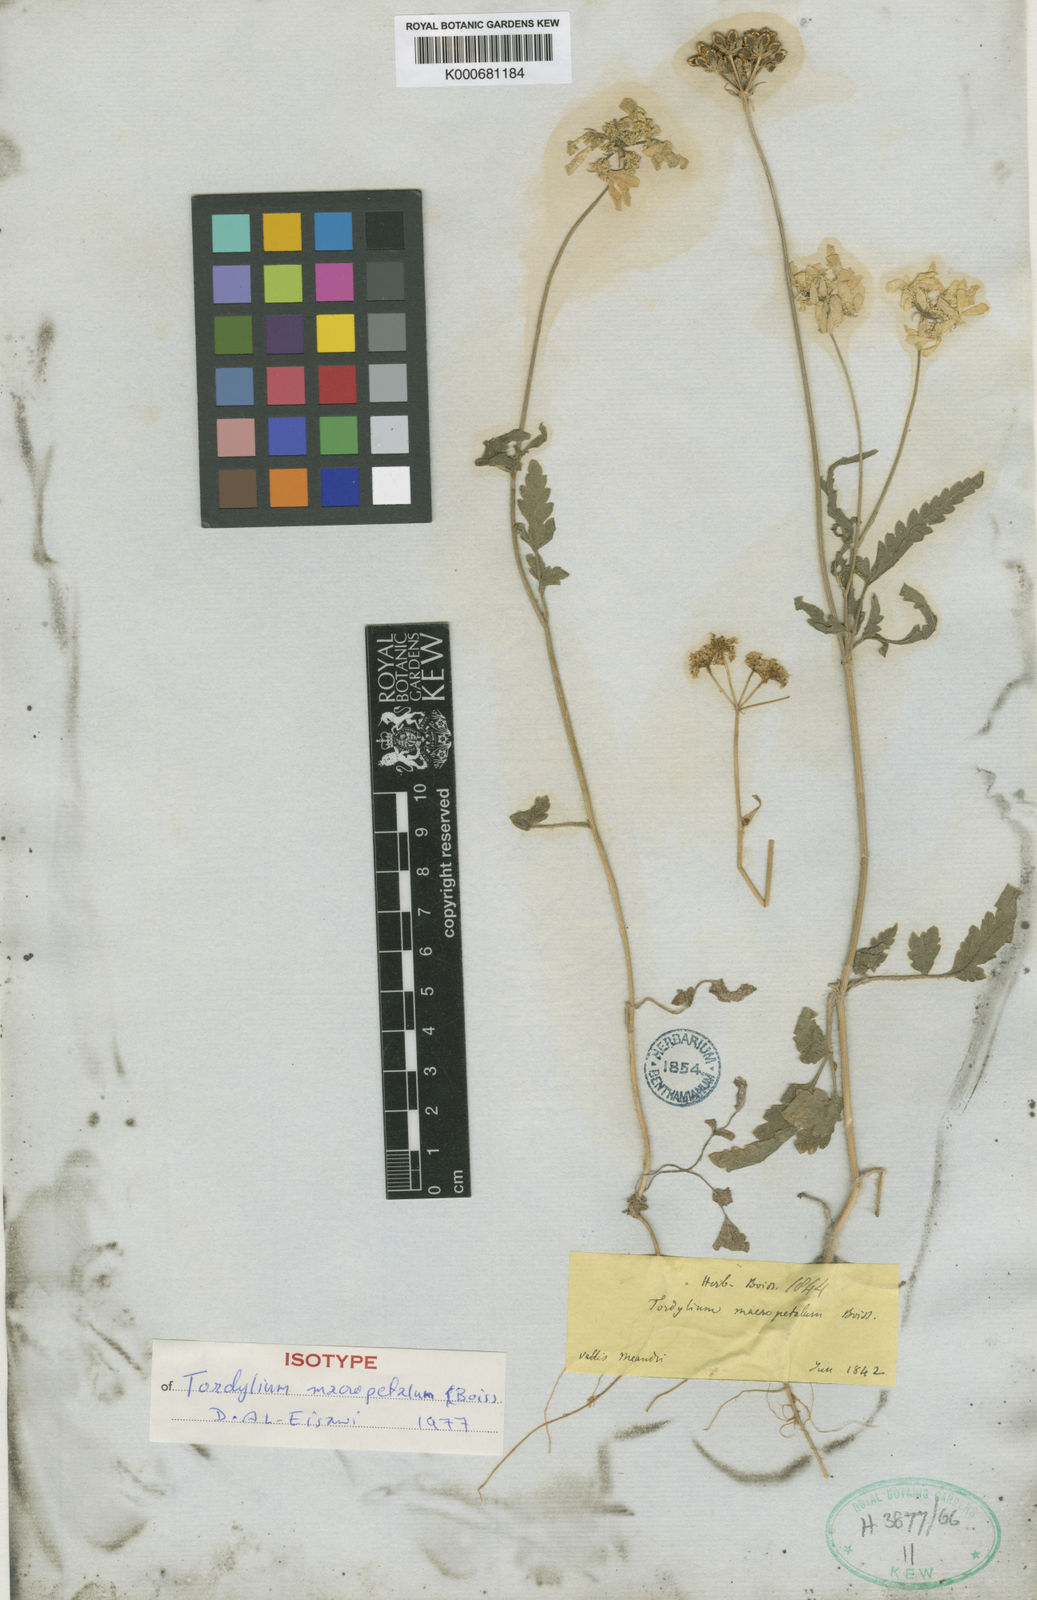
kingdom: Plantae
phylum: Tracheophyta
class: Magnoliopsida
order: Apiales
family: Apiaceae
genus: Tordylium
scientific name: Tordylium macropetalum
